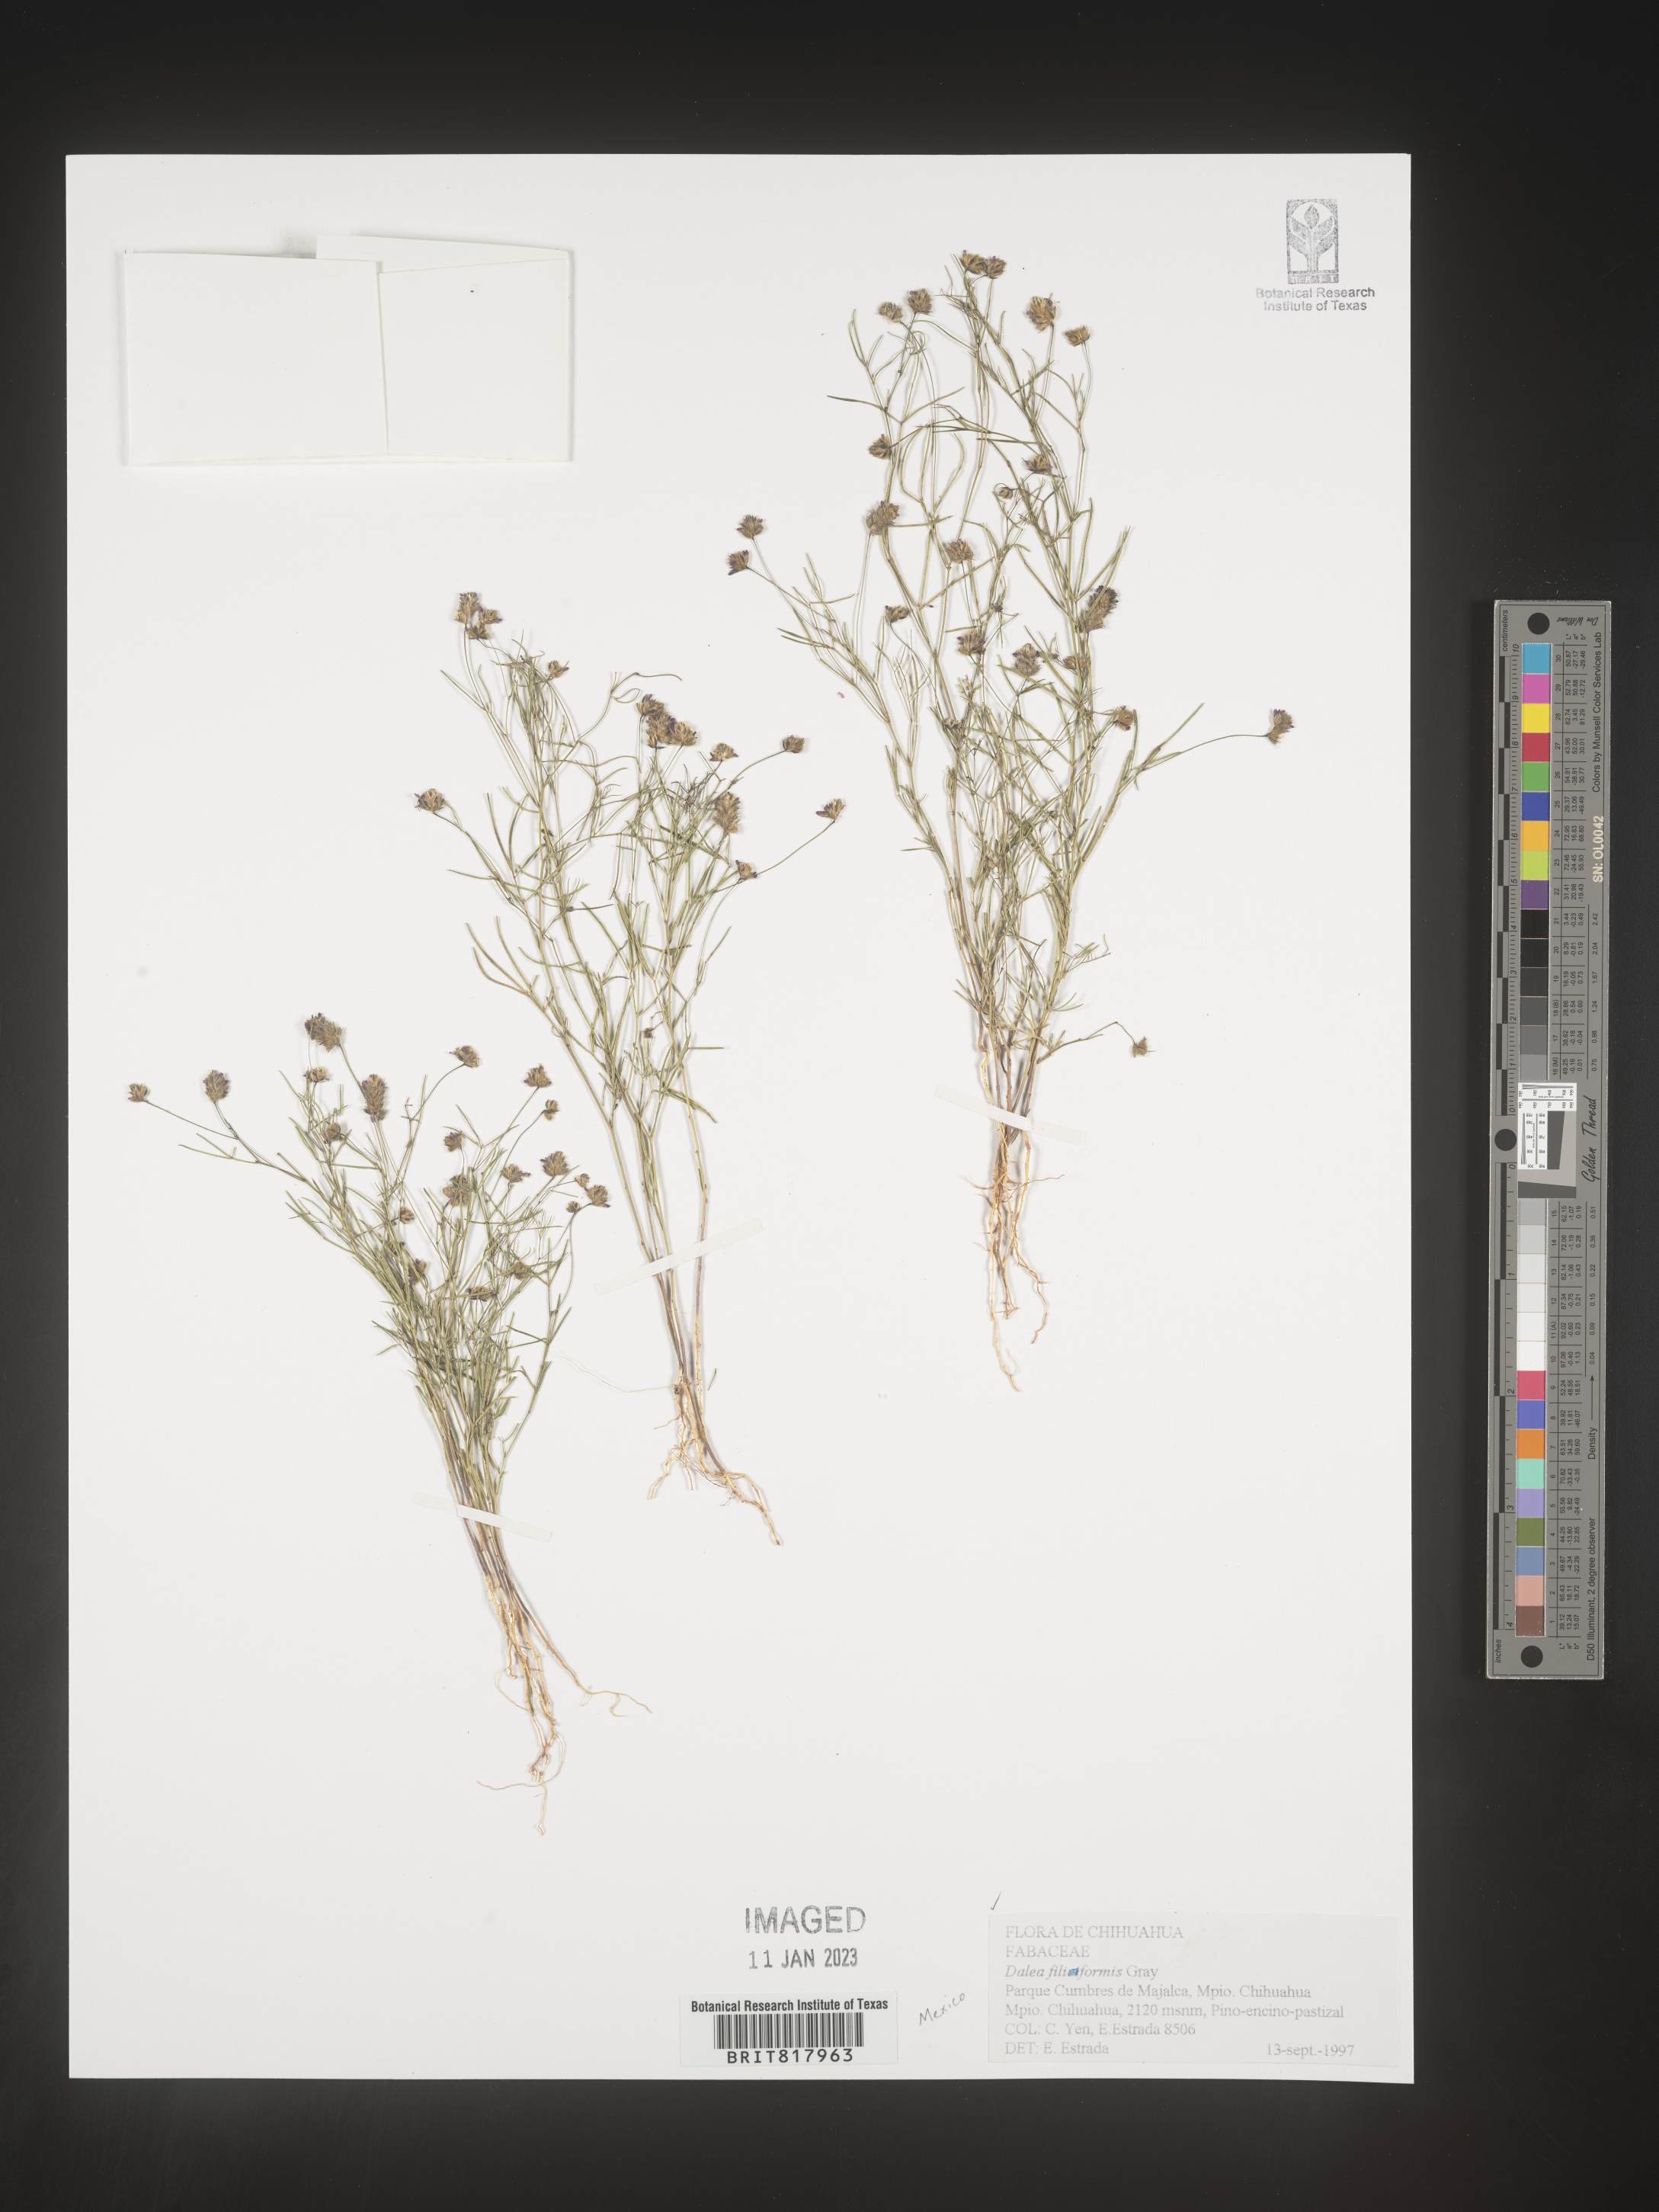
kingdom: Plantae
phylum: Tracheophyta
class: Magnoliopsida
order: Fabales
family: Fabaceae
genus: Dalea
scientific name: Dalea
